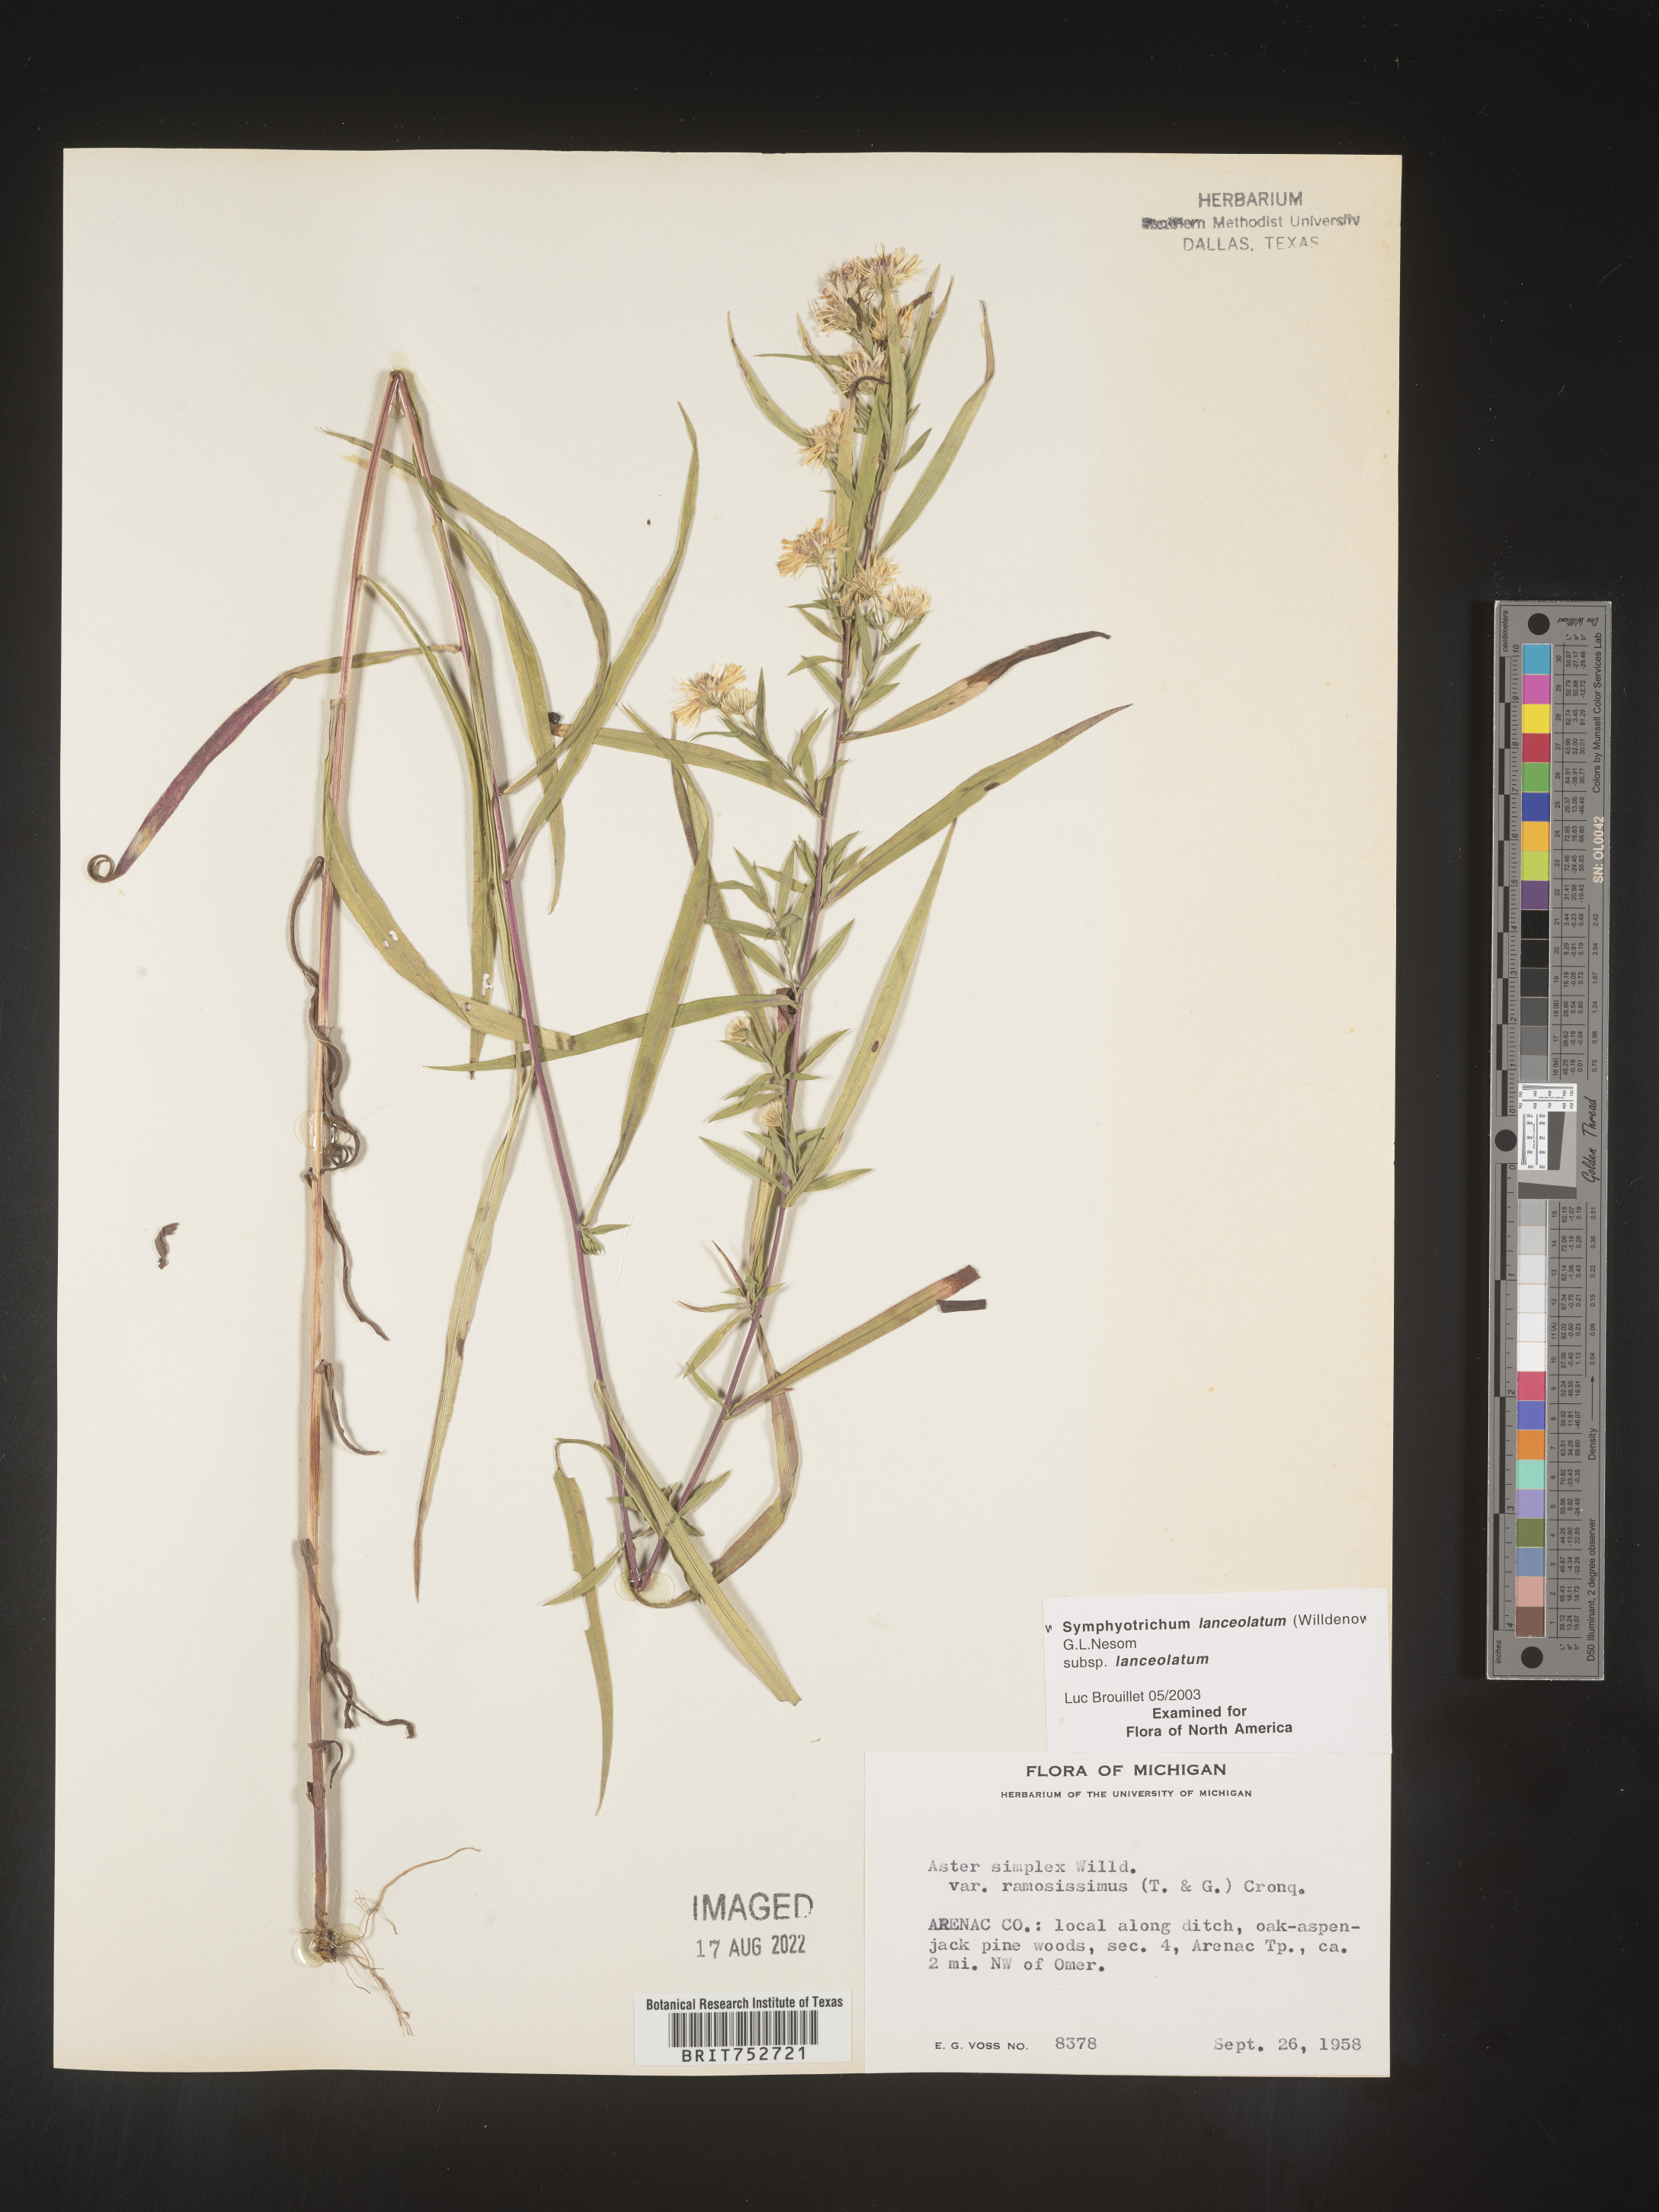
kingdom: Plantae
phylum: Tracheophyta
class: Magnoliopsida
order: Asterales
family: Asteraceae
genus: Symphyotrichum
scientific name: Symphyotrichum lanceolatum
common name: Panicled aster
